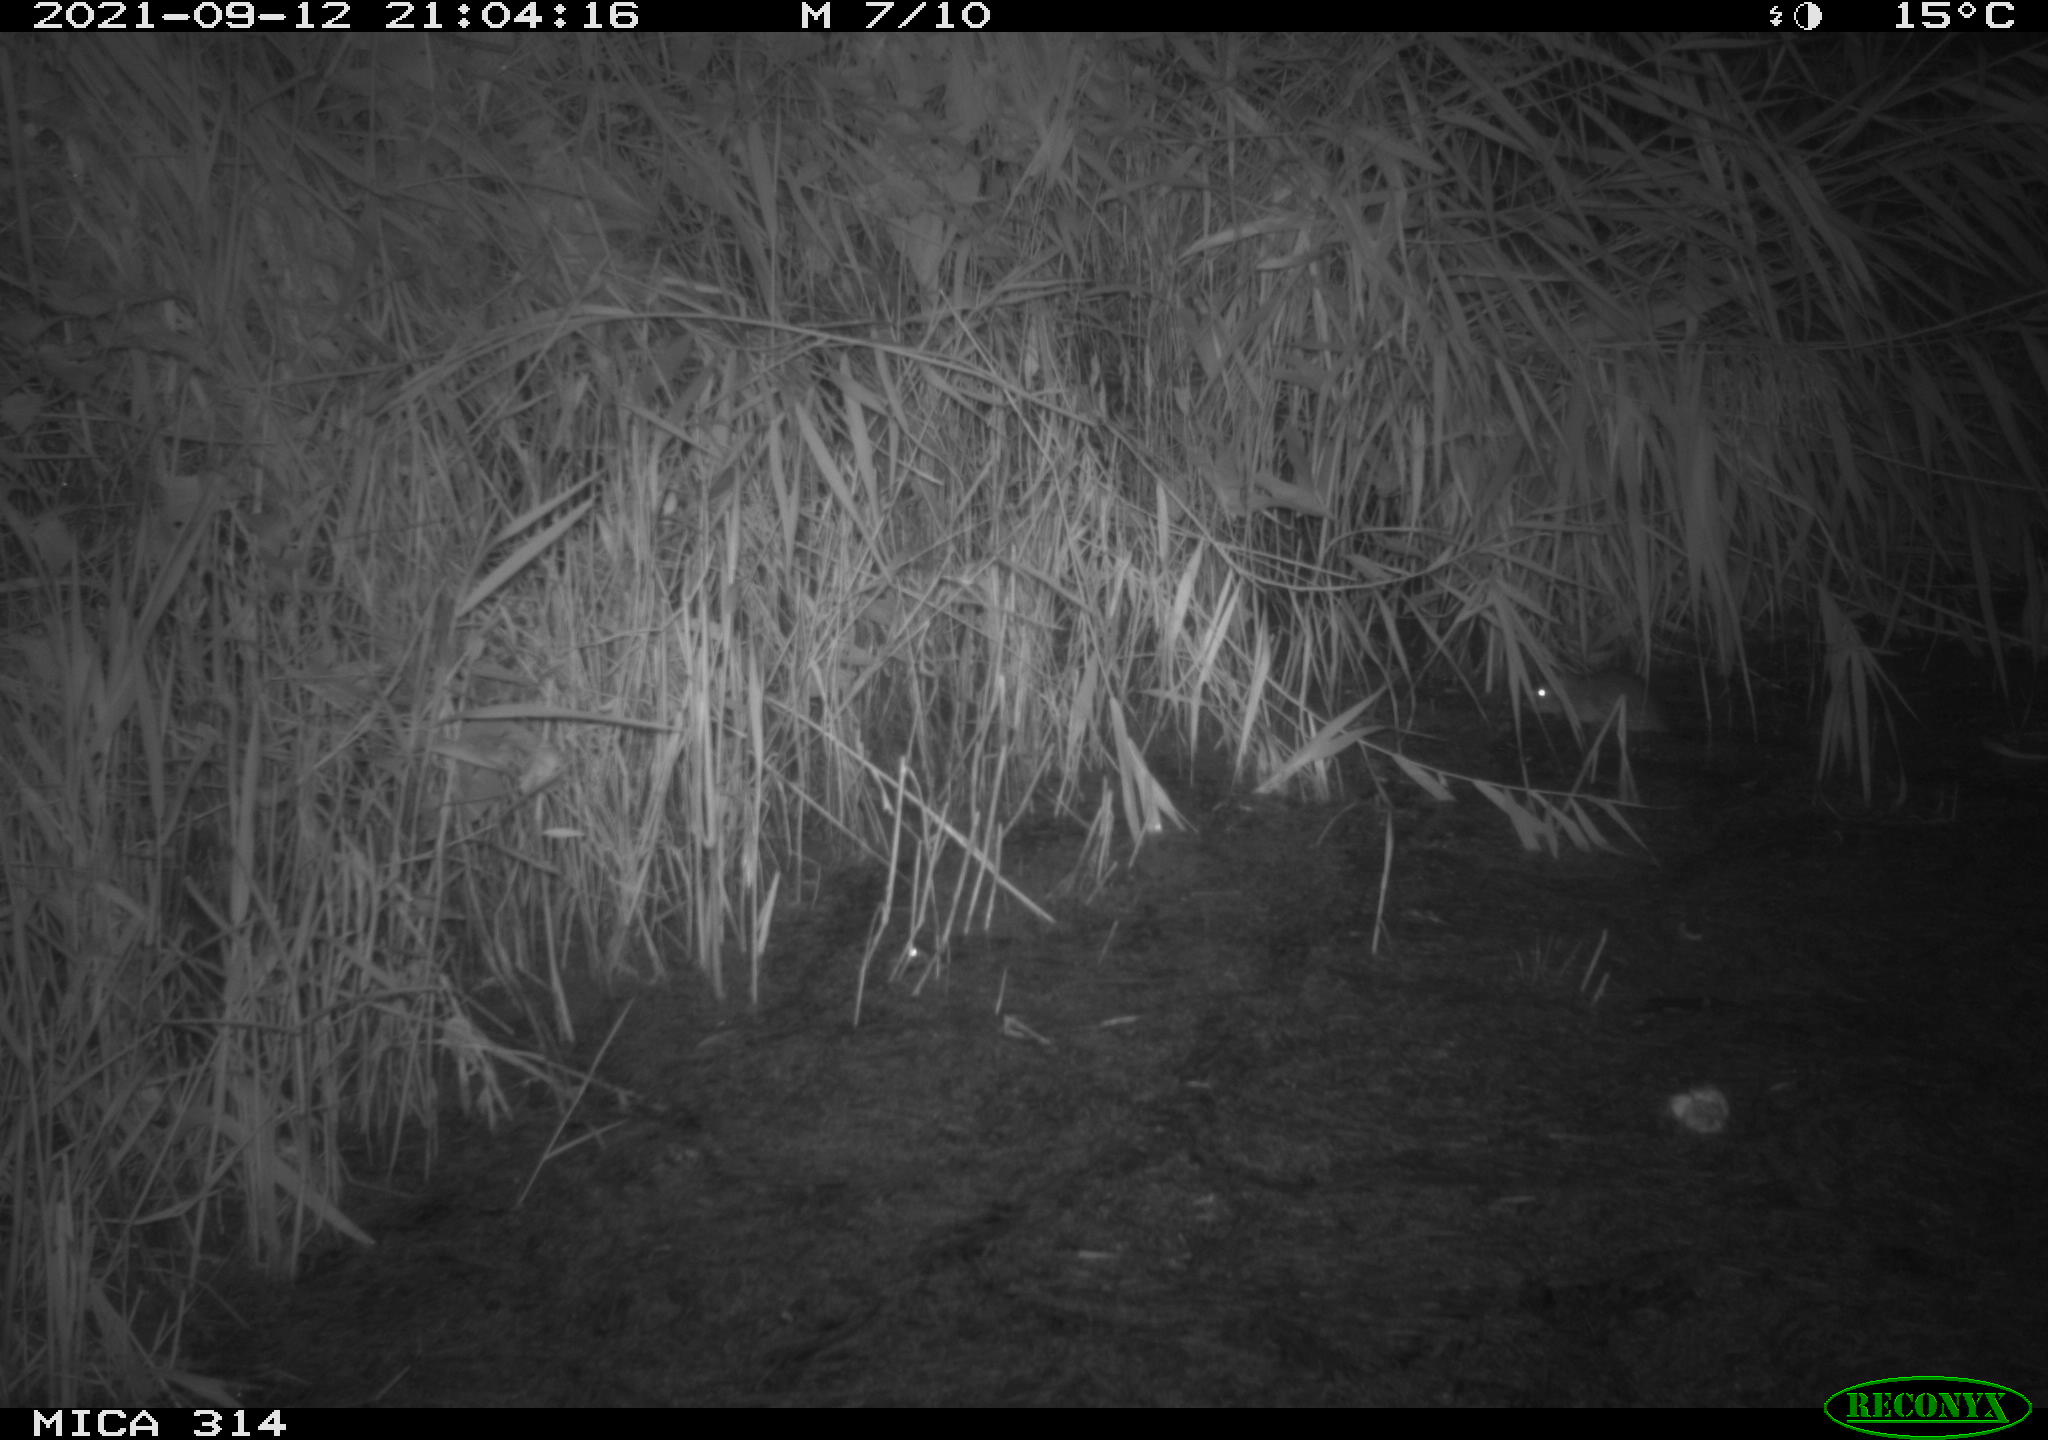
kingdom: Animalia
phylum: Chordata
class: Mammalia
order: Rodentia
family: Muridae
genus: Rattus
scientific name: Rattus norvegicus
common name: Brown rat
